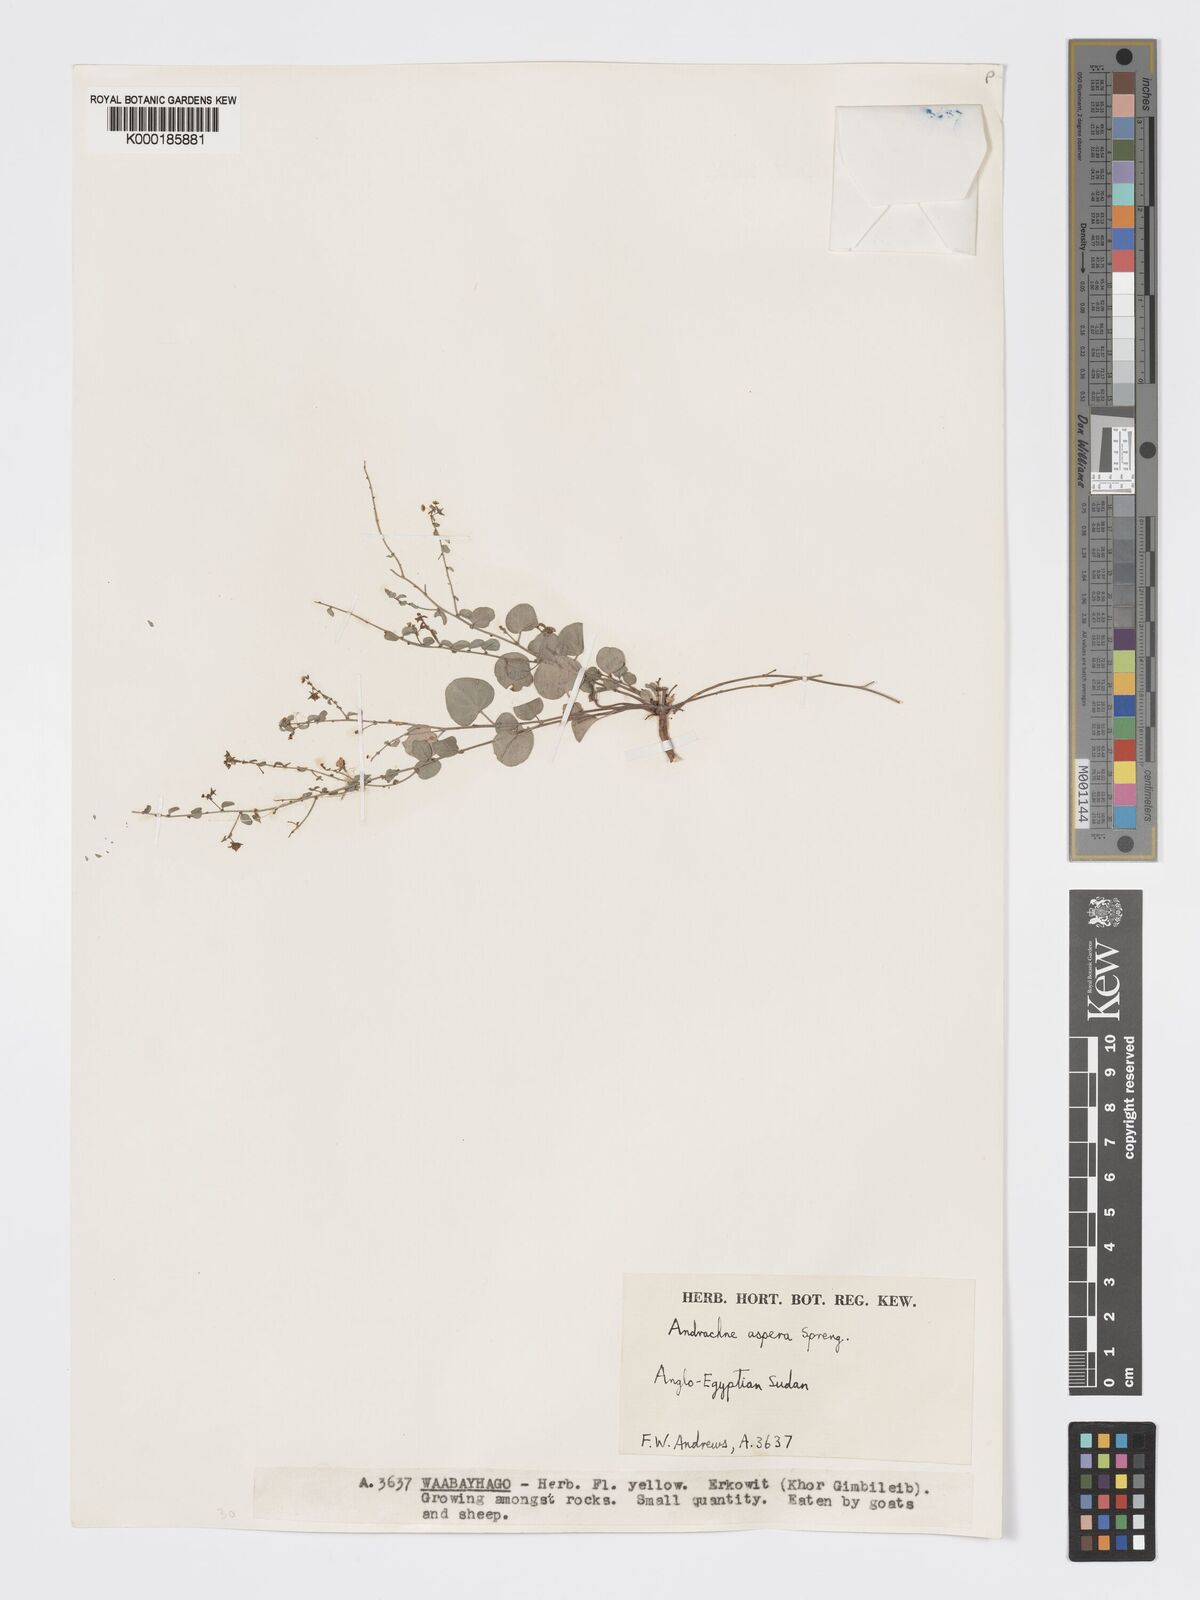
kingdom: Plantae
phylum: Tracheophyta
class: Magnoliopsida
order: Malpighiales
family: Phyllanthaceae
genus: Andrachne
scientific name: Andrachne aspera
